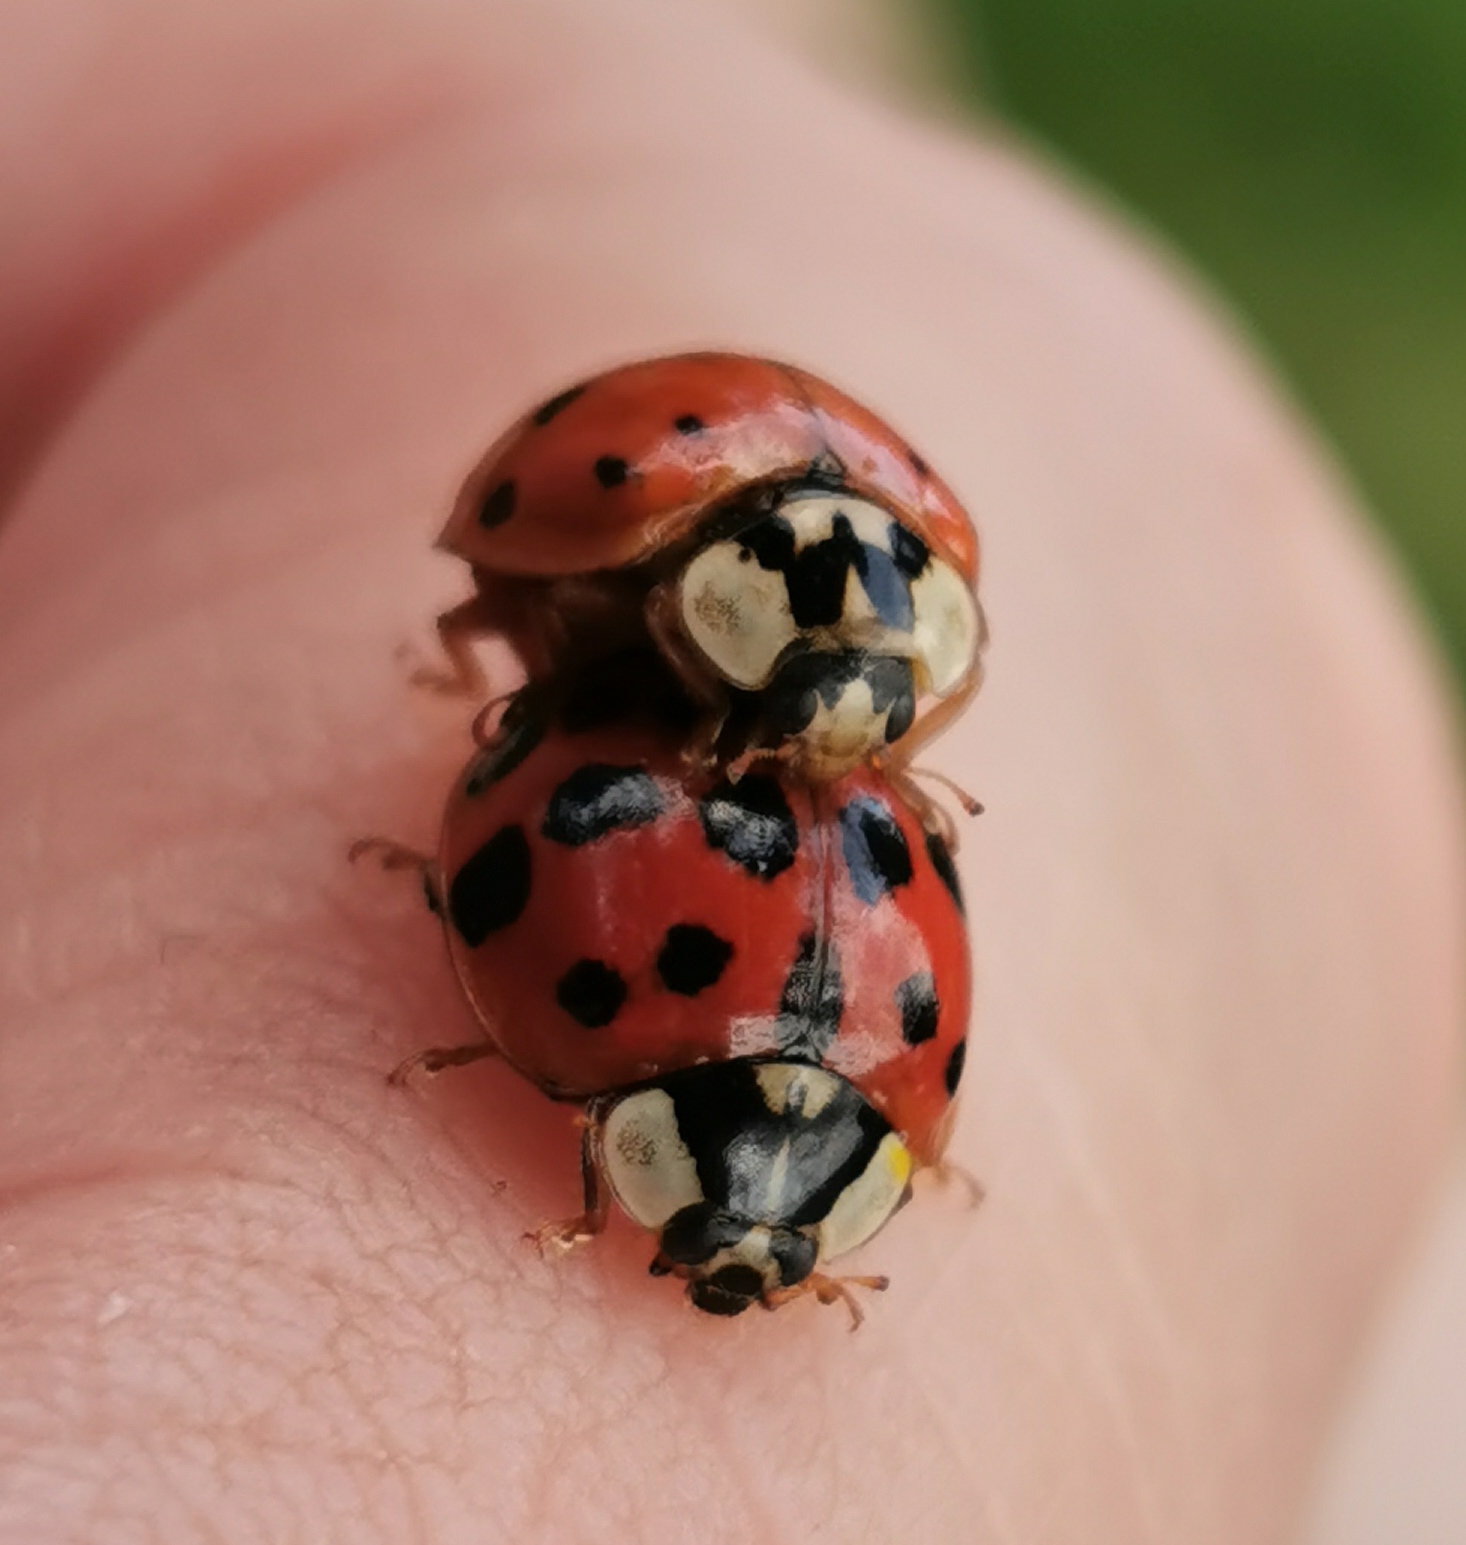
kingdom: Animalia
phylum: Arthropoda
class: Insecta
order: Coleoptera
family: Coccinellidae
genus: Harmonia
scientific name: Harmonia axyridis
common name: Harlekinmariehøne
